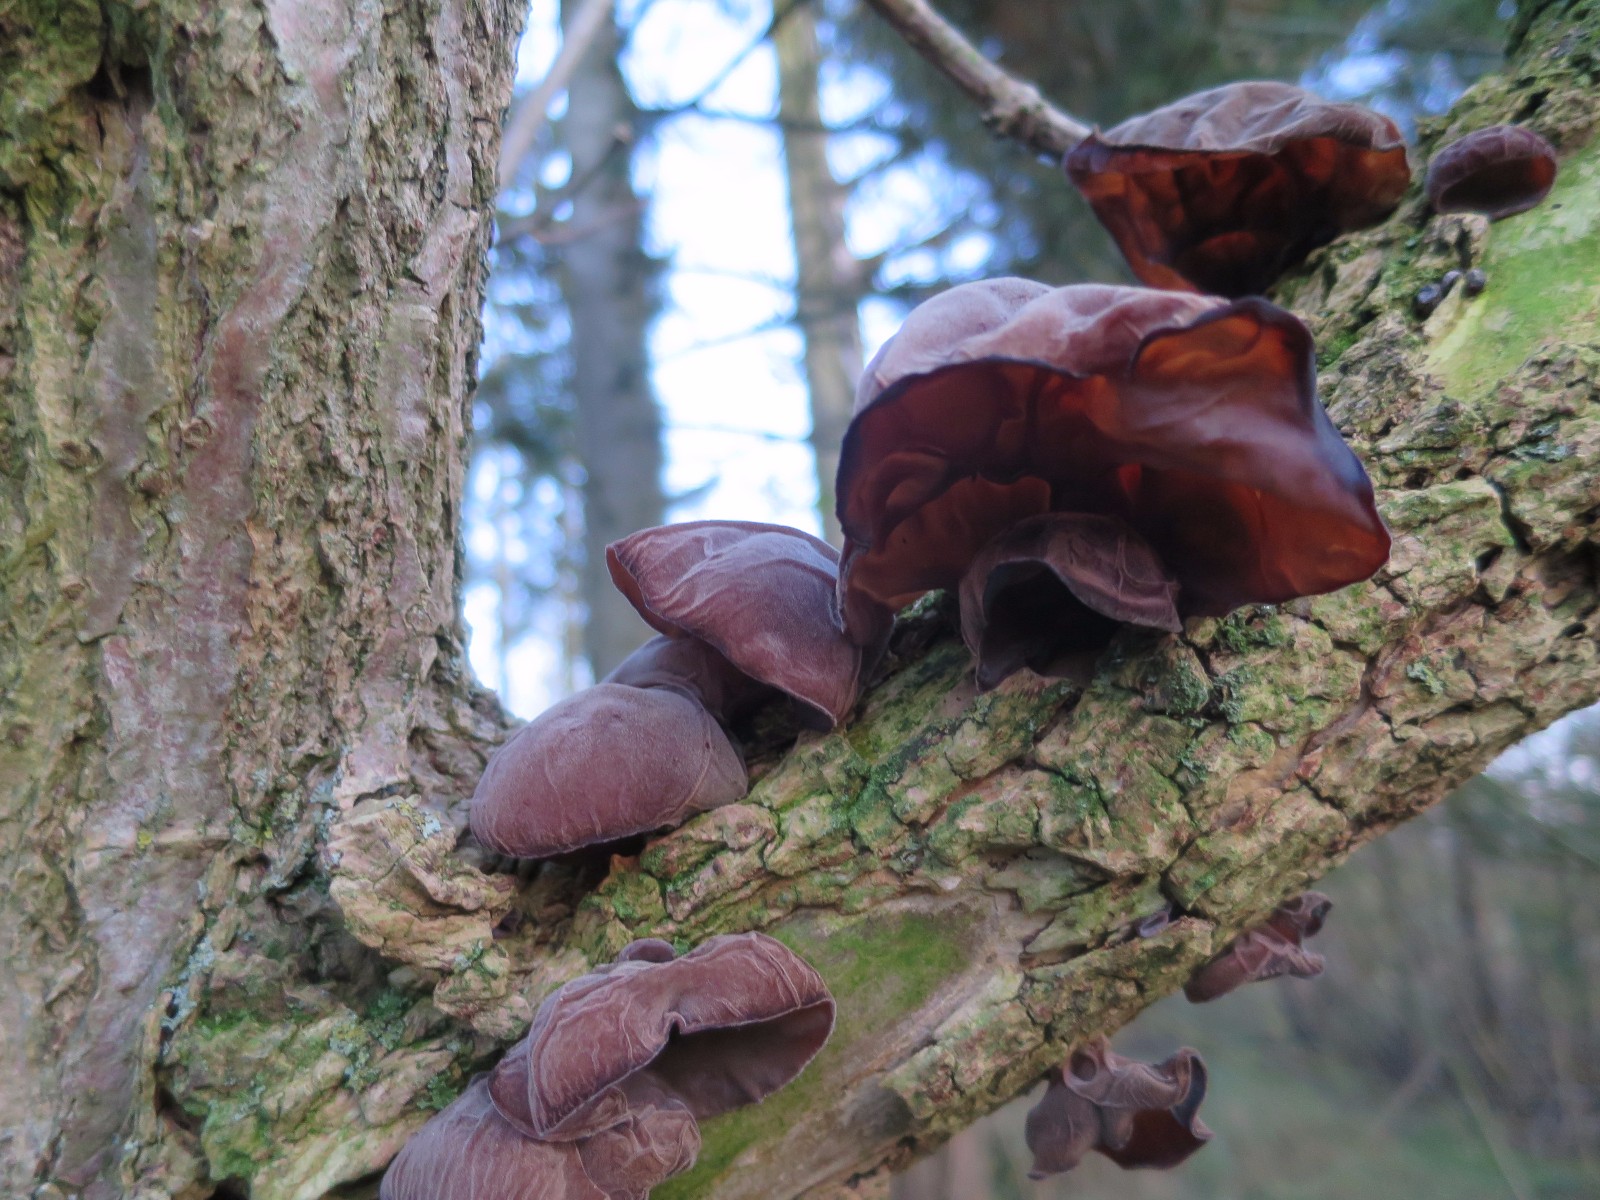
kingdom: Fungi
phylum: Basidiomycota
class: Agaricomycetes
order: Auriculariales
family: Auriculariaceae
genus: Auricularia
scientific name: Auricularia auricula-judae
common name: almindelig judasøre
